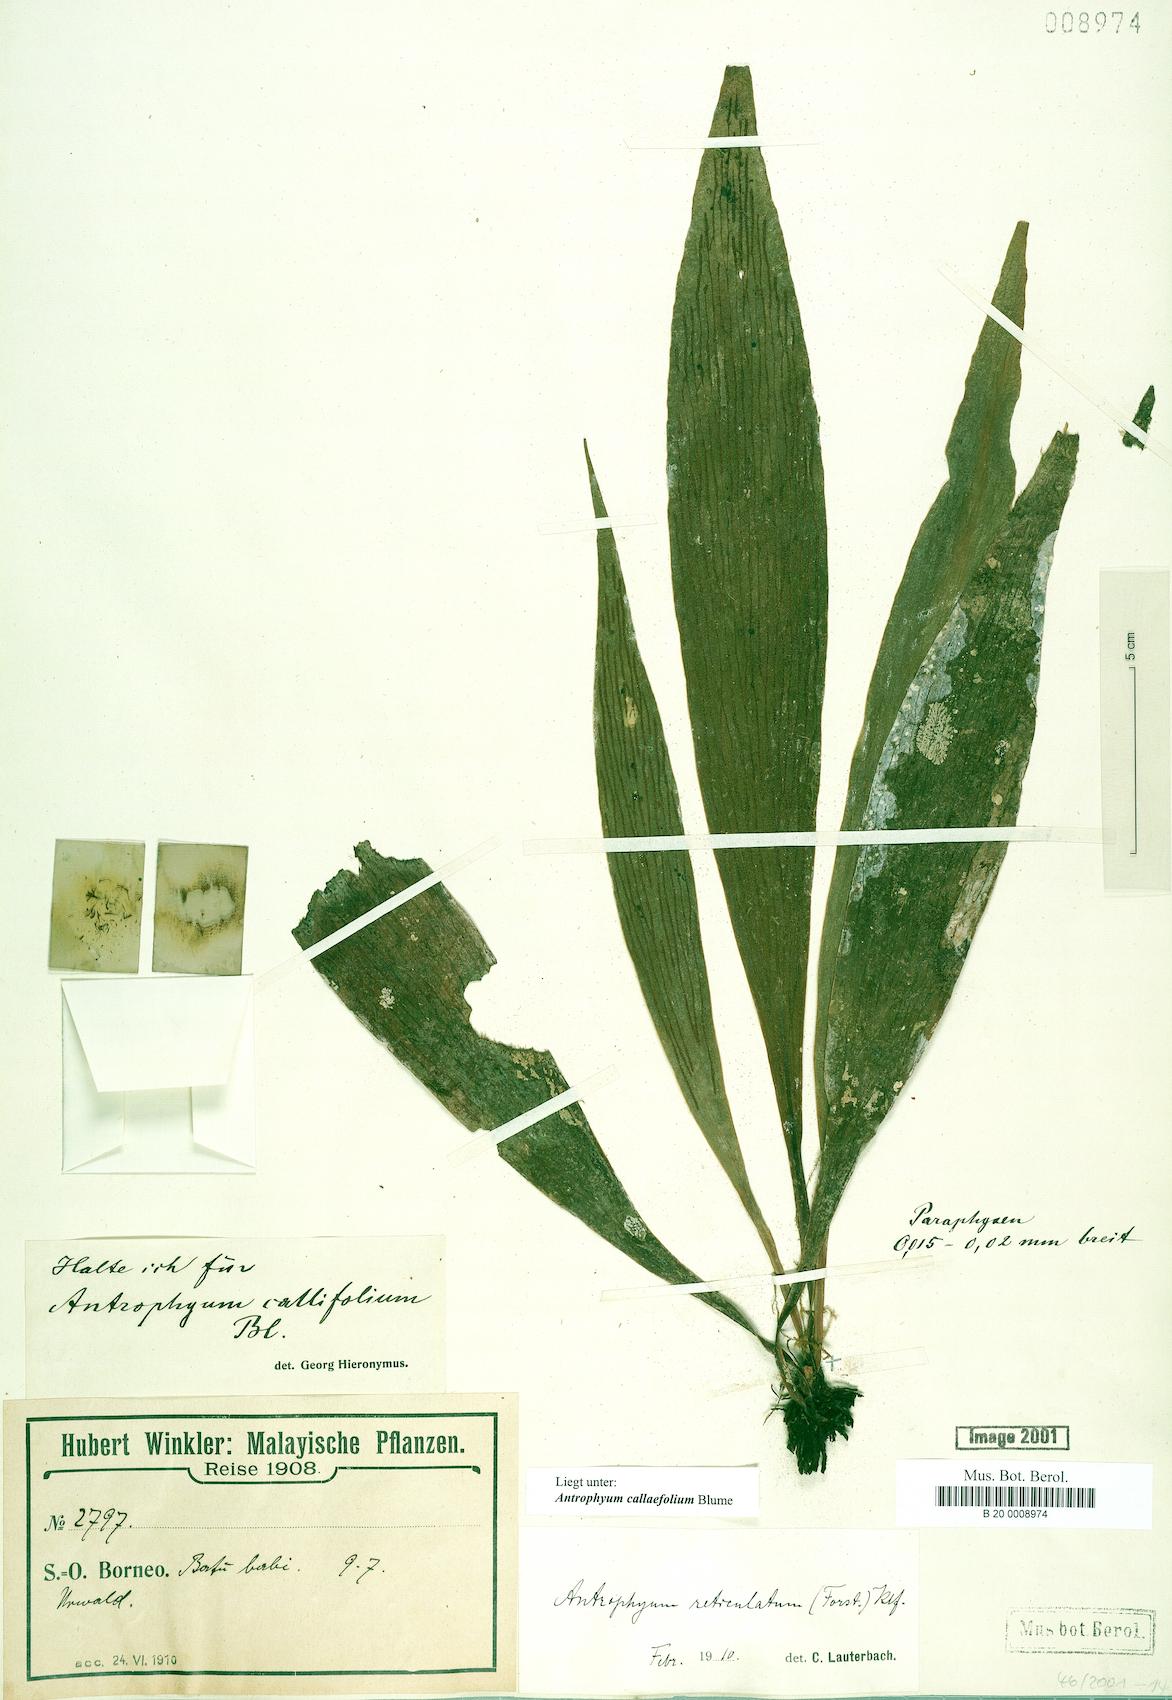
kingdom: Plantae
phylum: Tracheophyta
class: Polypodiopsida
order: Polypodiales
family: Pteridaceae
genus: Antrophyum
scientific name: Antrophyum callifolium
